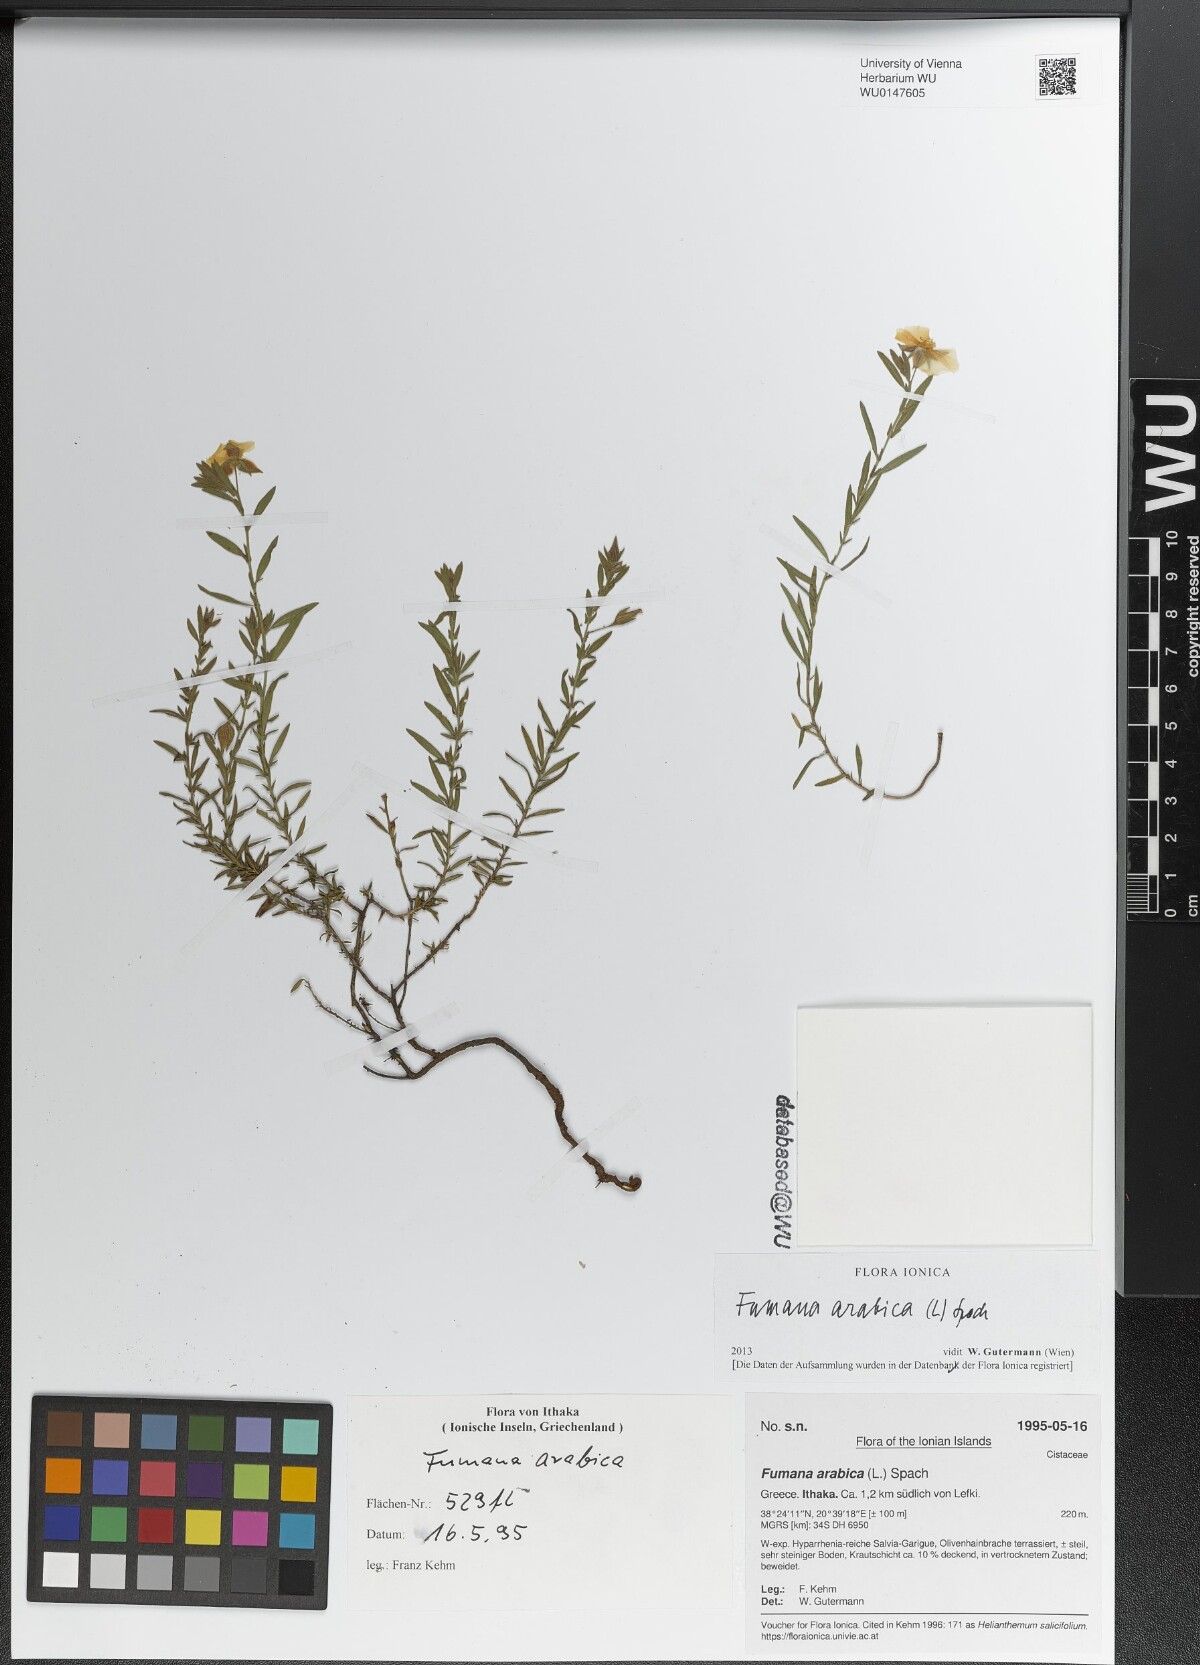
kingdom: Plantae
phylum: Tracheophyta
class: Magnoliopsida
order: Malvales
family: Cistaceae
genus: Fumana
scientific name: Fumana arabica
